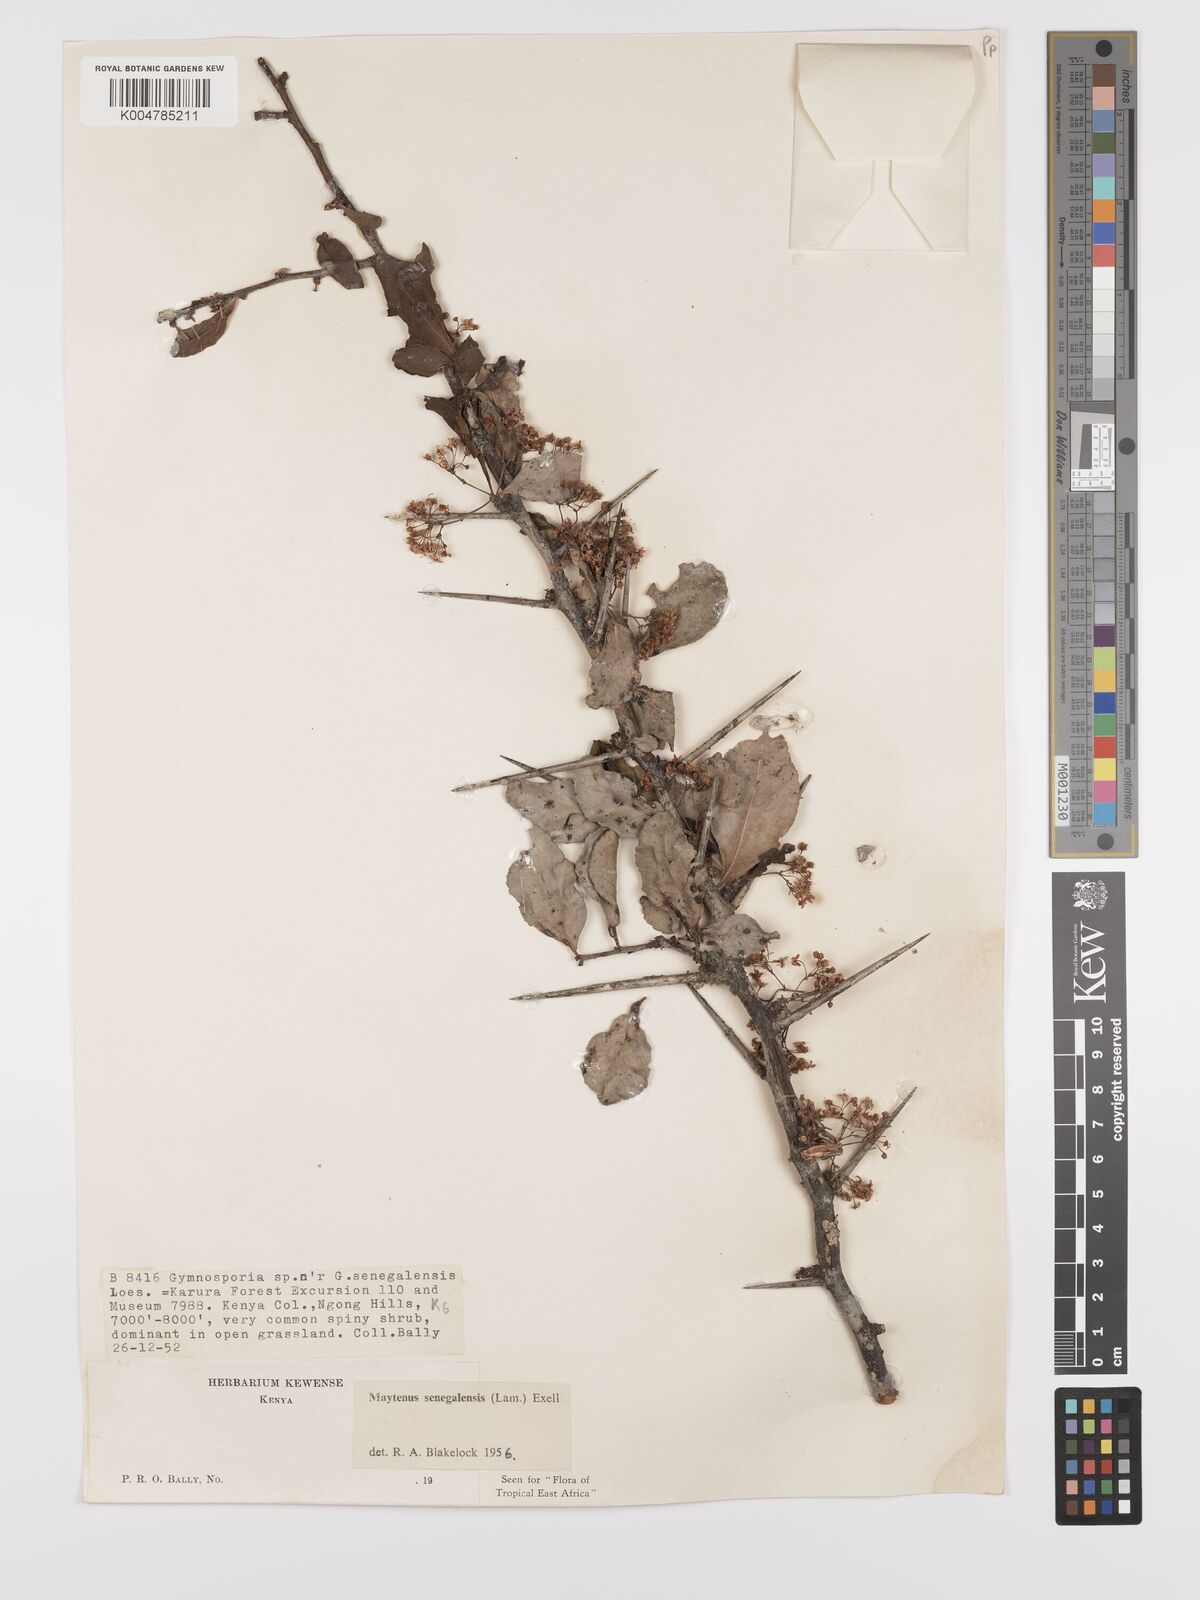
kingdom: Plantae
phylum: Tracheophyta
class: Magnoliopsida
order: Celastrales
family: Celastraceae
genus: Gymnosporia
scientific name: Gymnosporia heterophylla
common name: Angle-stem spikethorn
